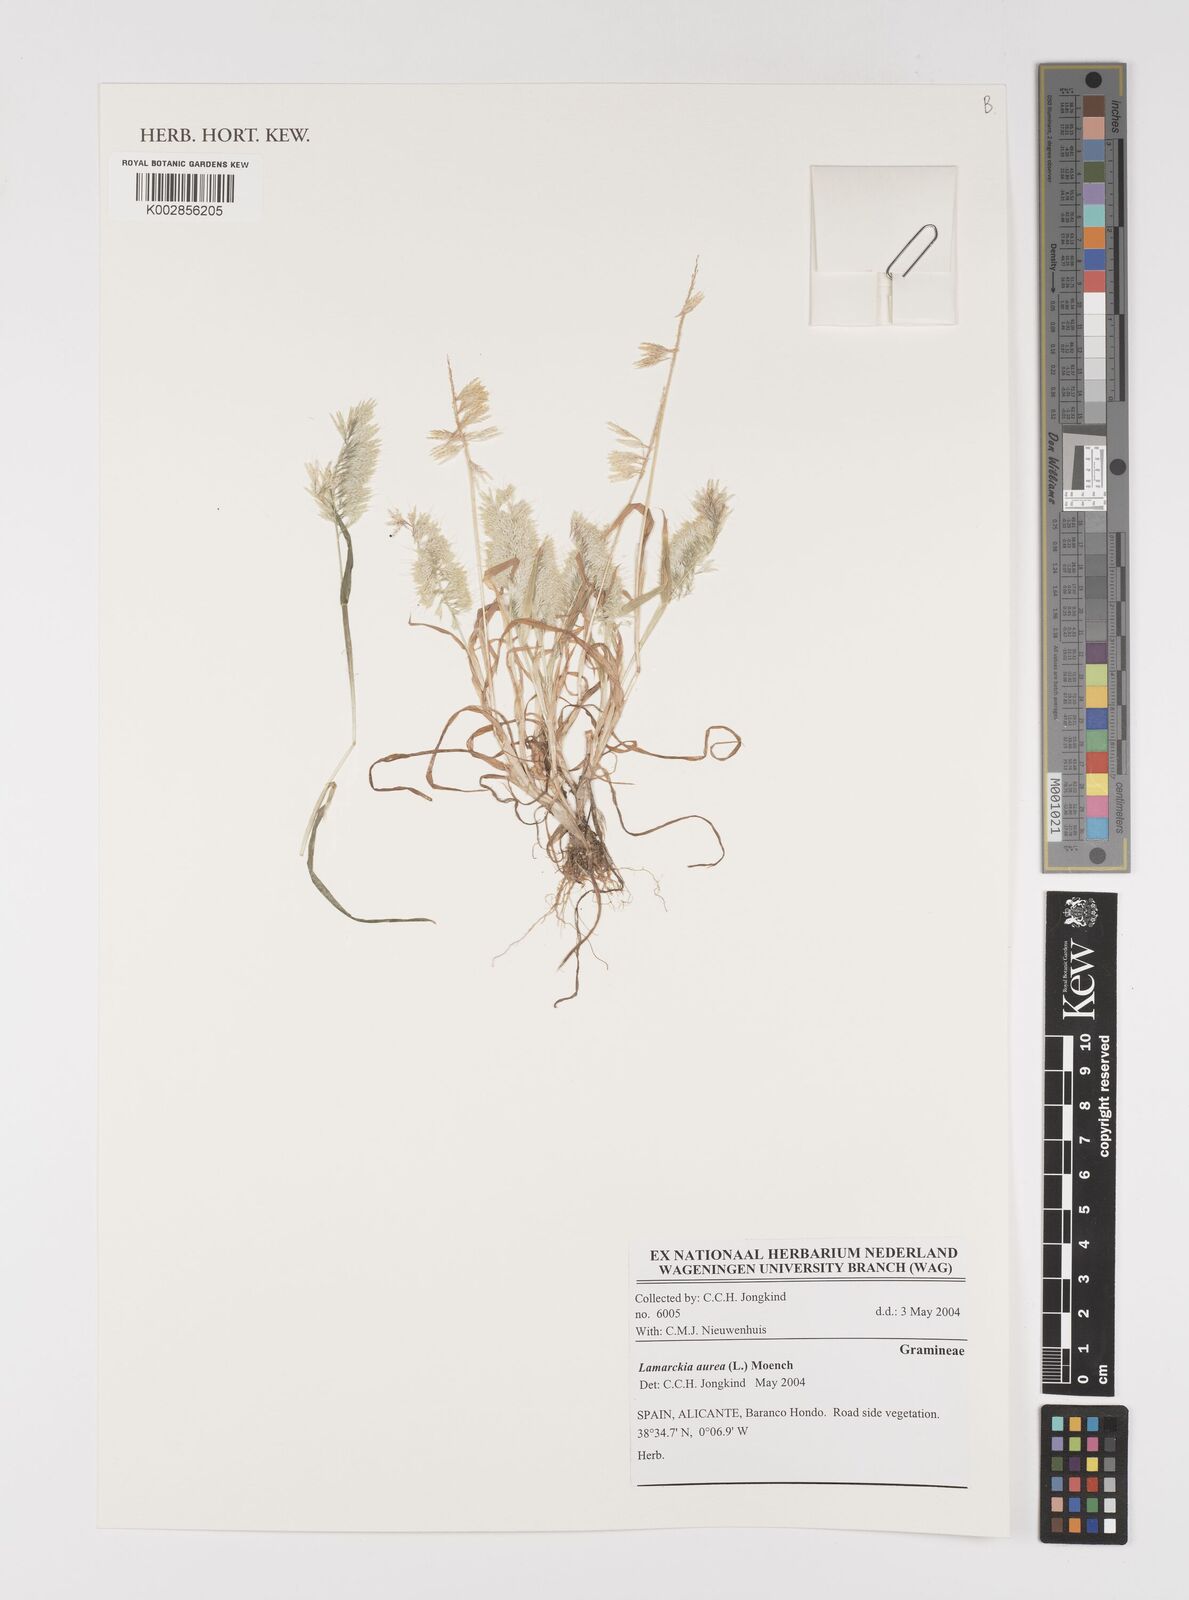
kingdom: Plantae
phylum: Tracheophyta
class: Liliopsida
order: Poales
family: Poaceae
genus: Lamarckia
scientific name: Lamarckia aurea
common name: Golden dog's-tail
